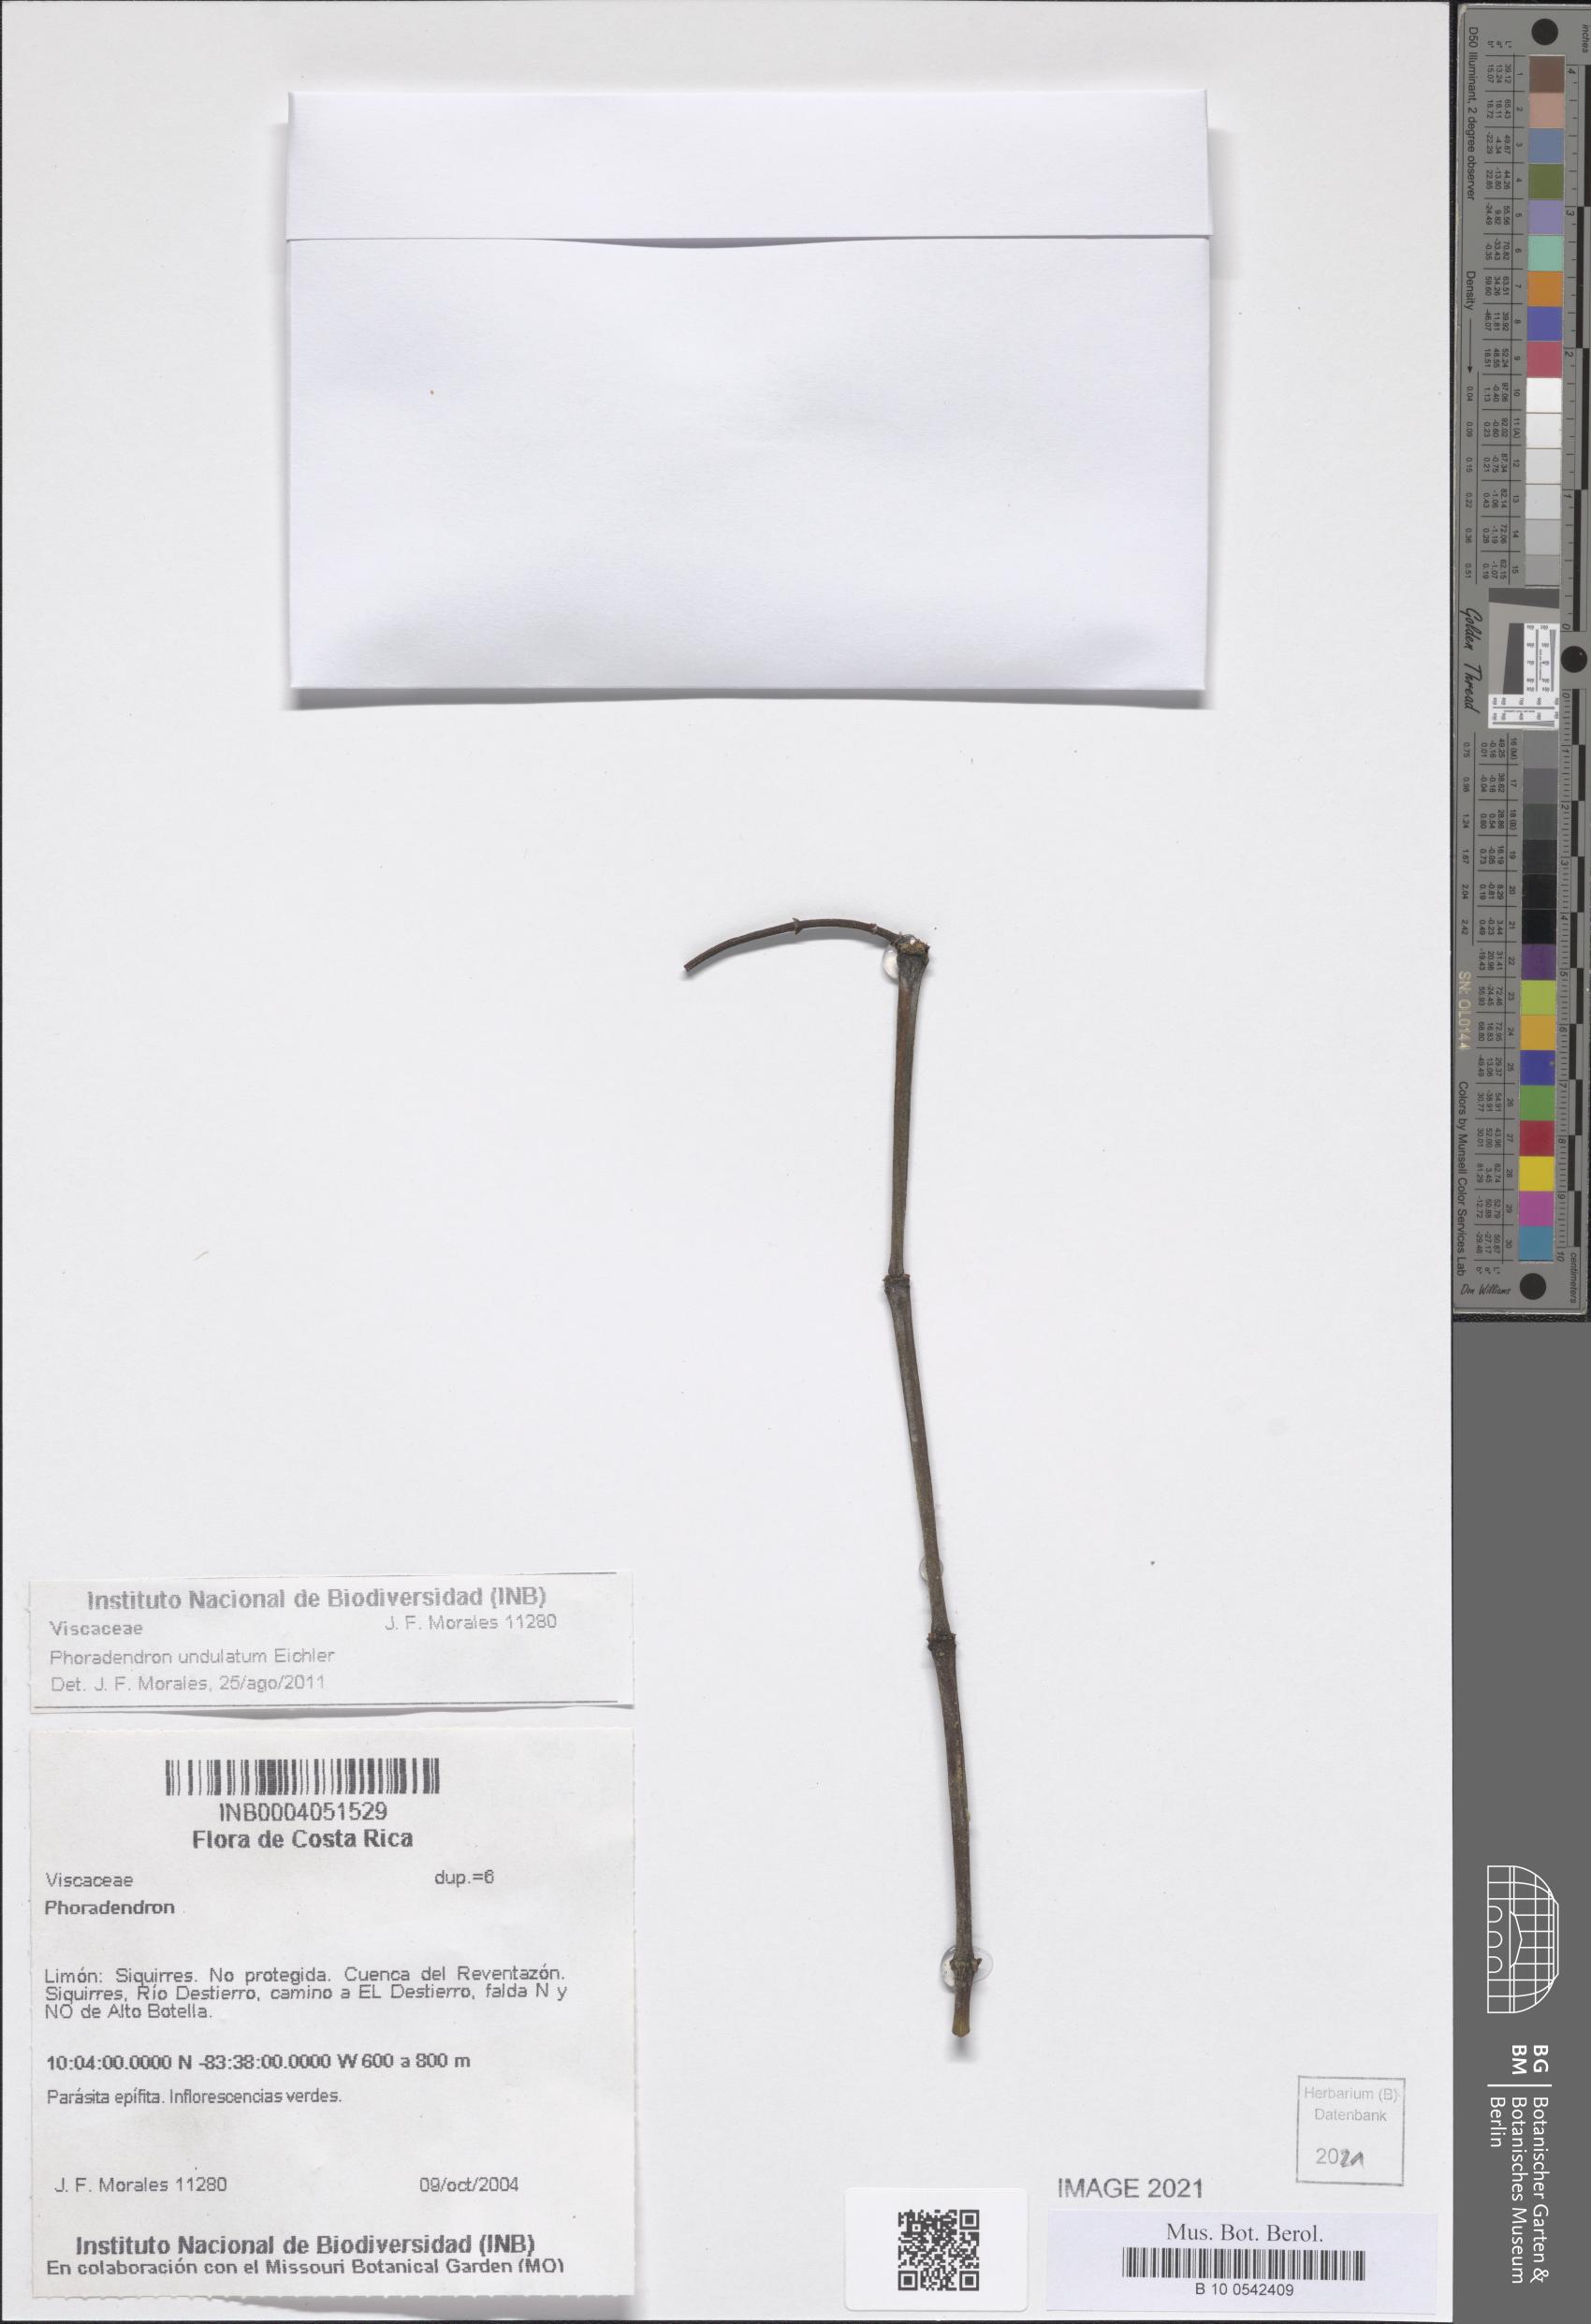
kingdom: Plantae
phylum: Tracheophyta
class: Magnoliopsida
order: Santalales
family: Viscaceae
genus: Phoradendron
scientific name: Phoradendron undulatum
